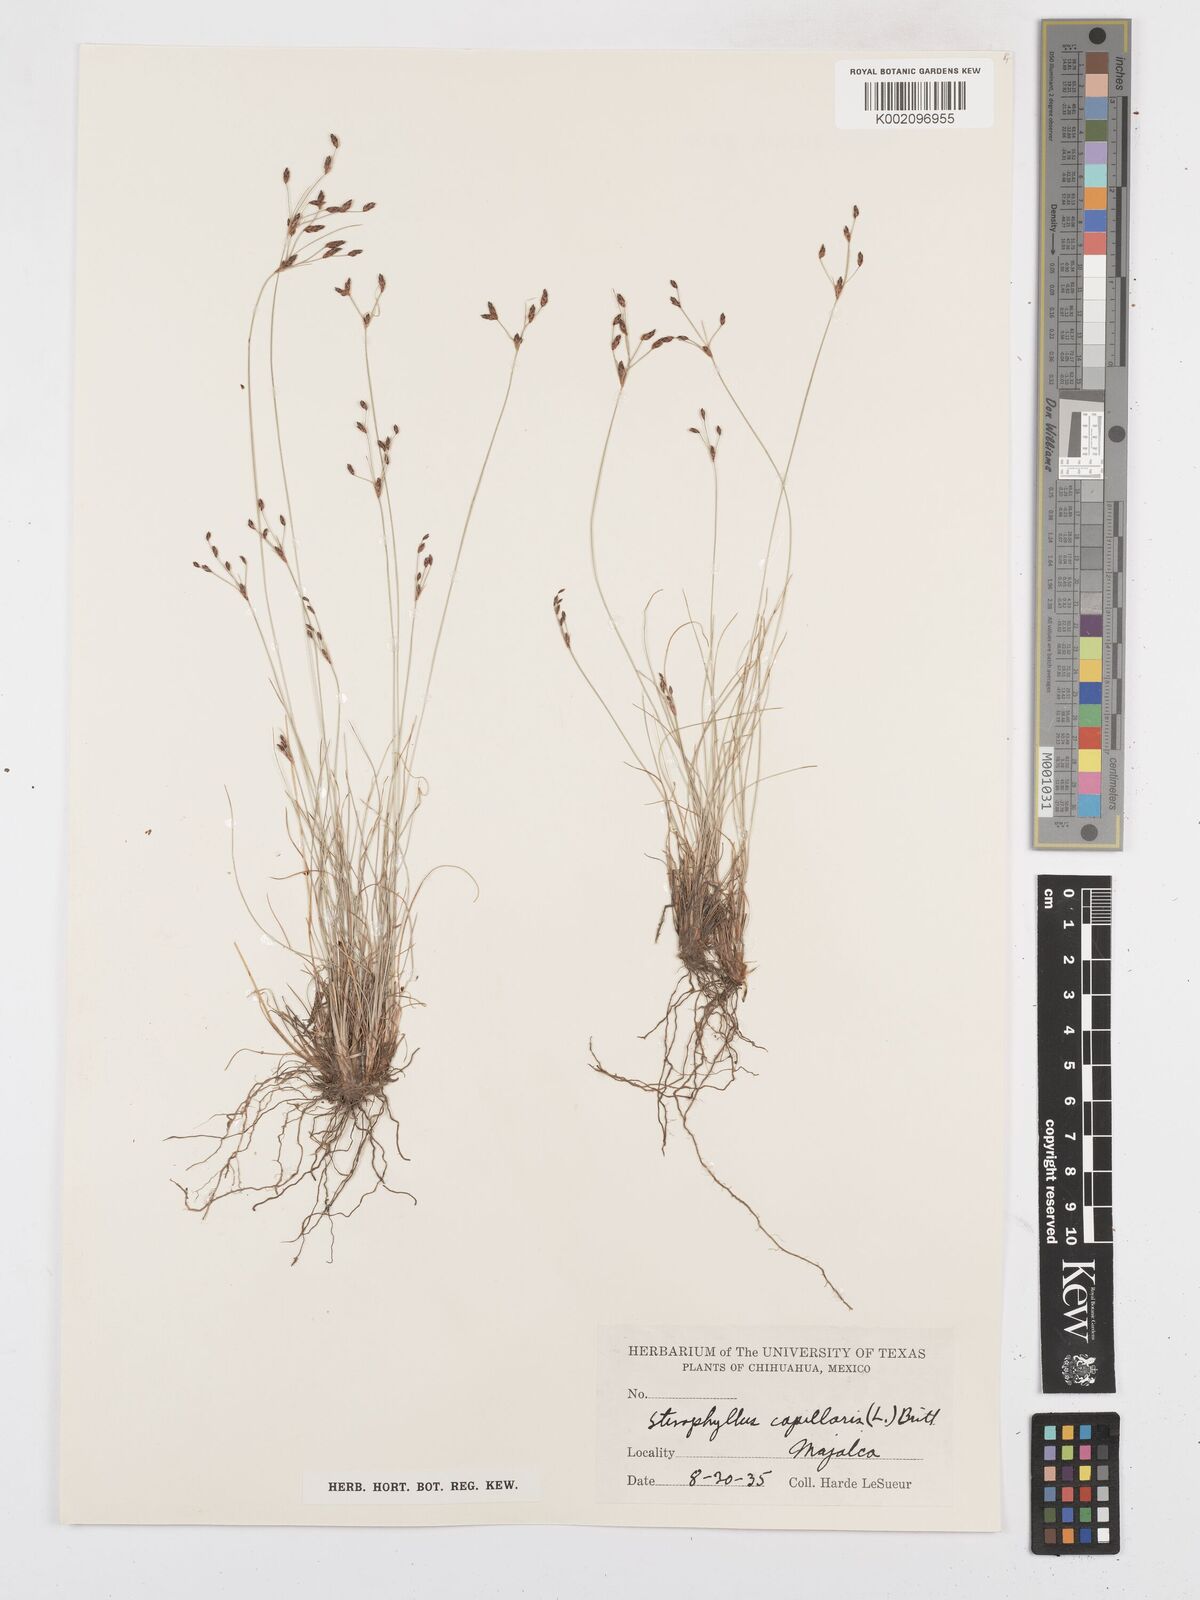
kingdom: Plantae
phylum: Tracheophyta
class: Liliopsida
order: Poales
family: Cyperaceae
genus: Bulbostylis
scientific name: Bulbostylis capillaris
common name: Densetuft hairsedge
